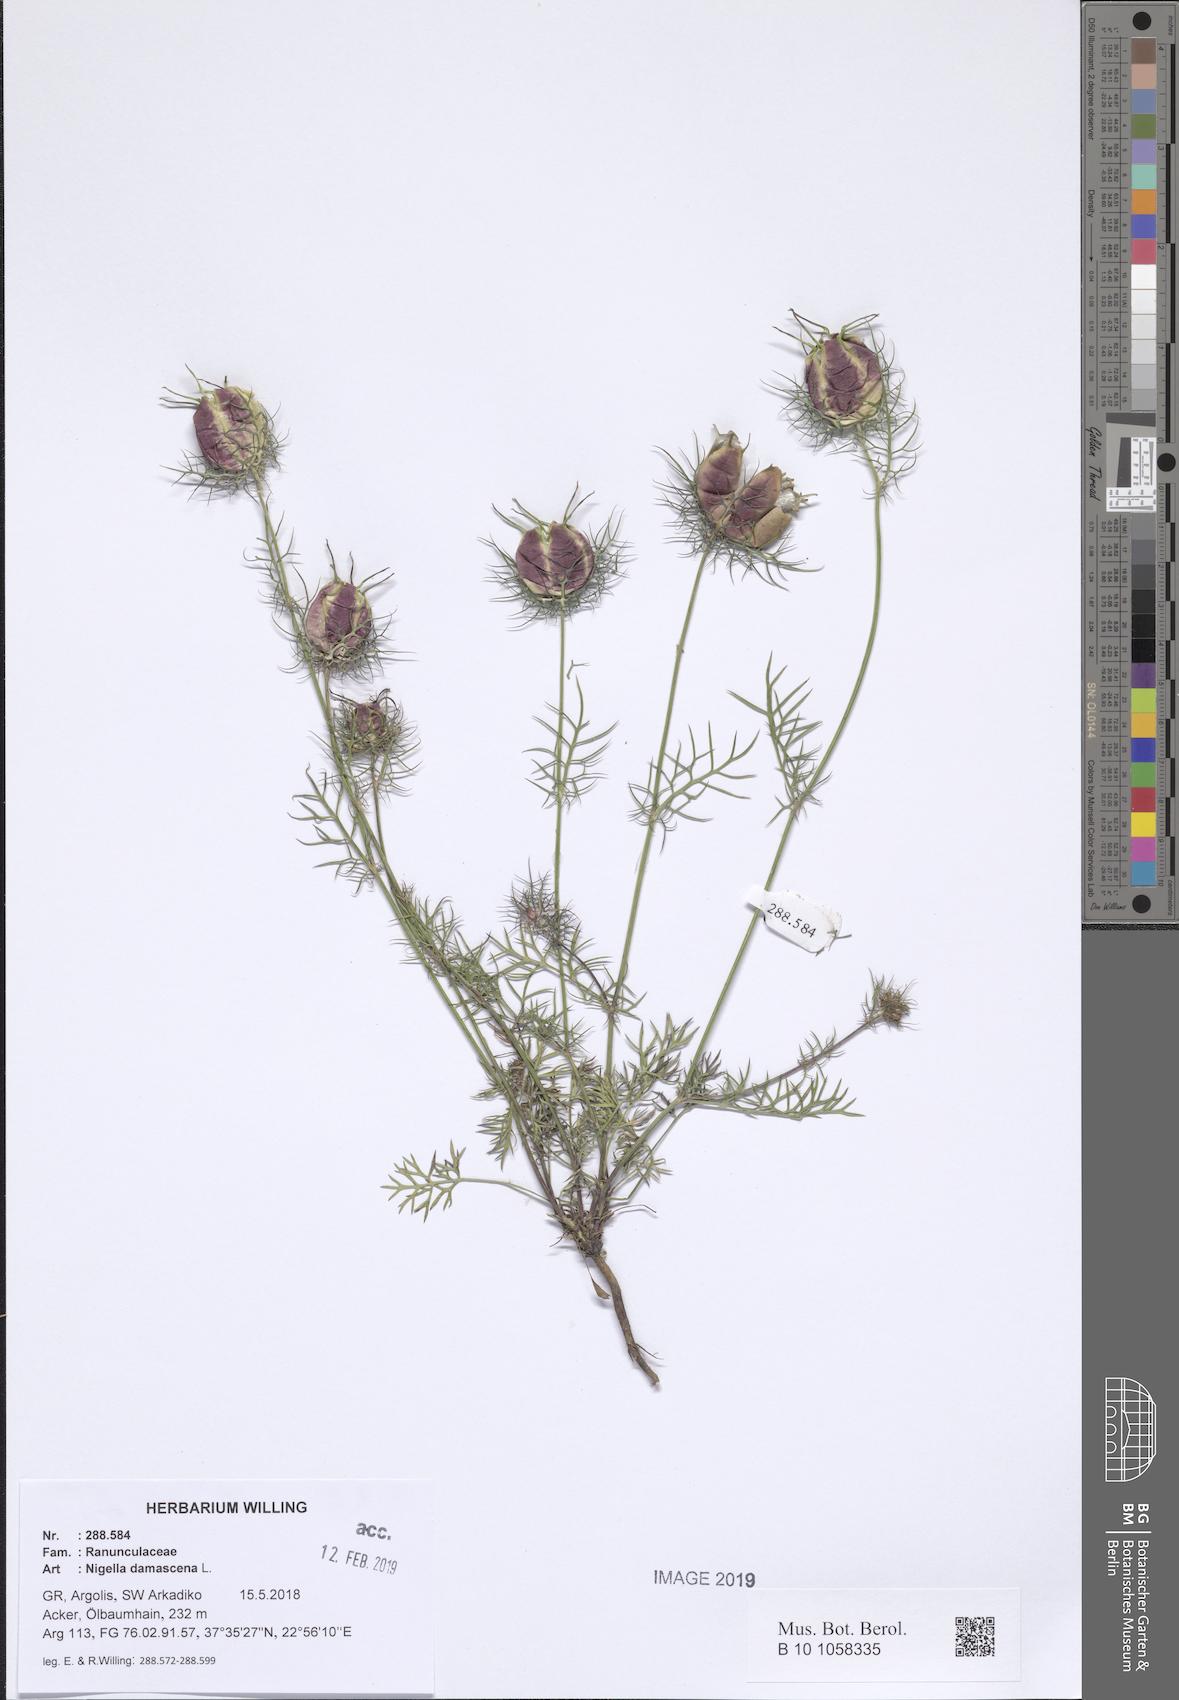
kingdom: Plantae
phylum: Tracheophyta
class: Magnoliopsida
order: Ranunculales
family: Ranunculaceae
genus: Nigella
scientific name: Nigella damascena
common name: Love-in-a-mist
